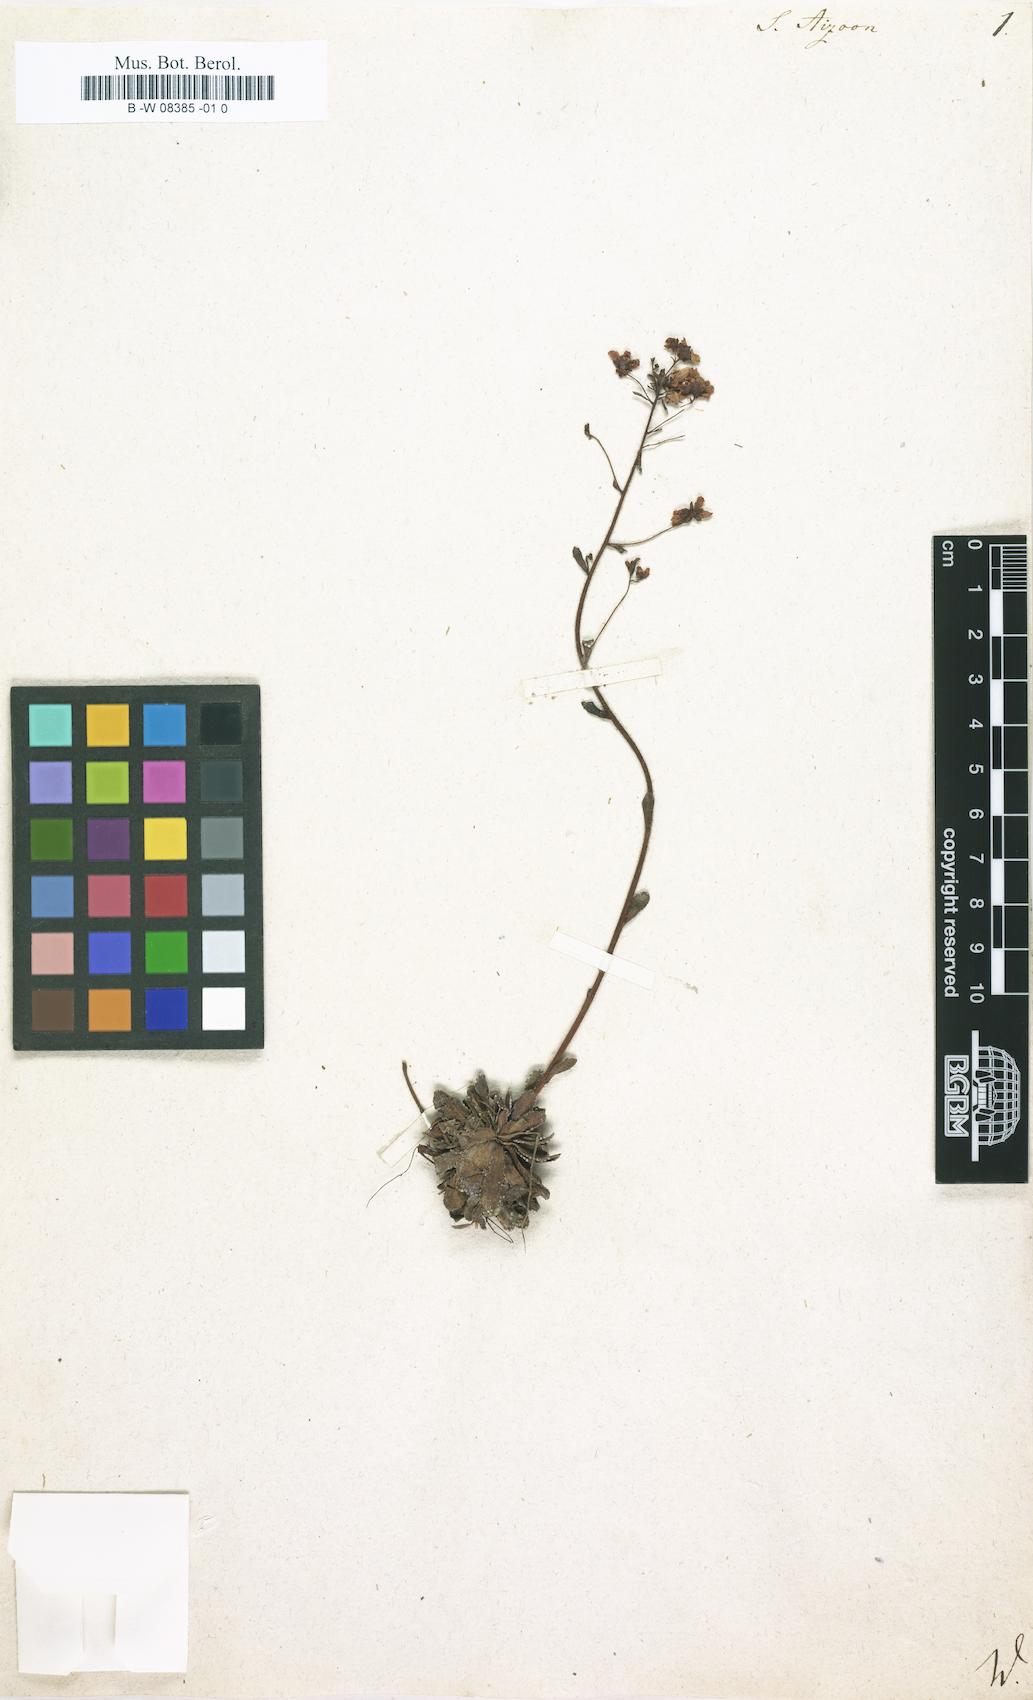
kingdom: Plantae
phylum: Tracheophyta
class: Magnoliopsida
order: Saxifragales
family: Saxifragaceae
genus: Saxifraga
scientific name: Saxifraga aizoon
